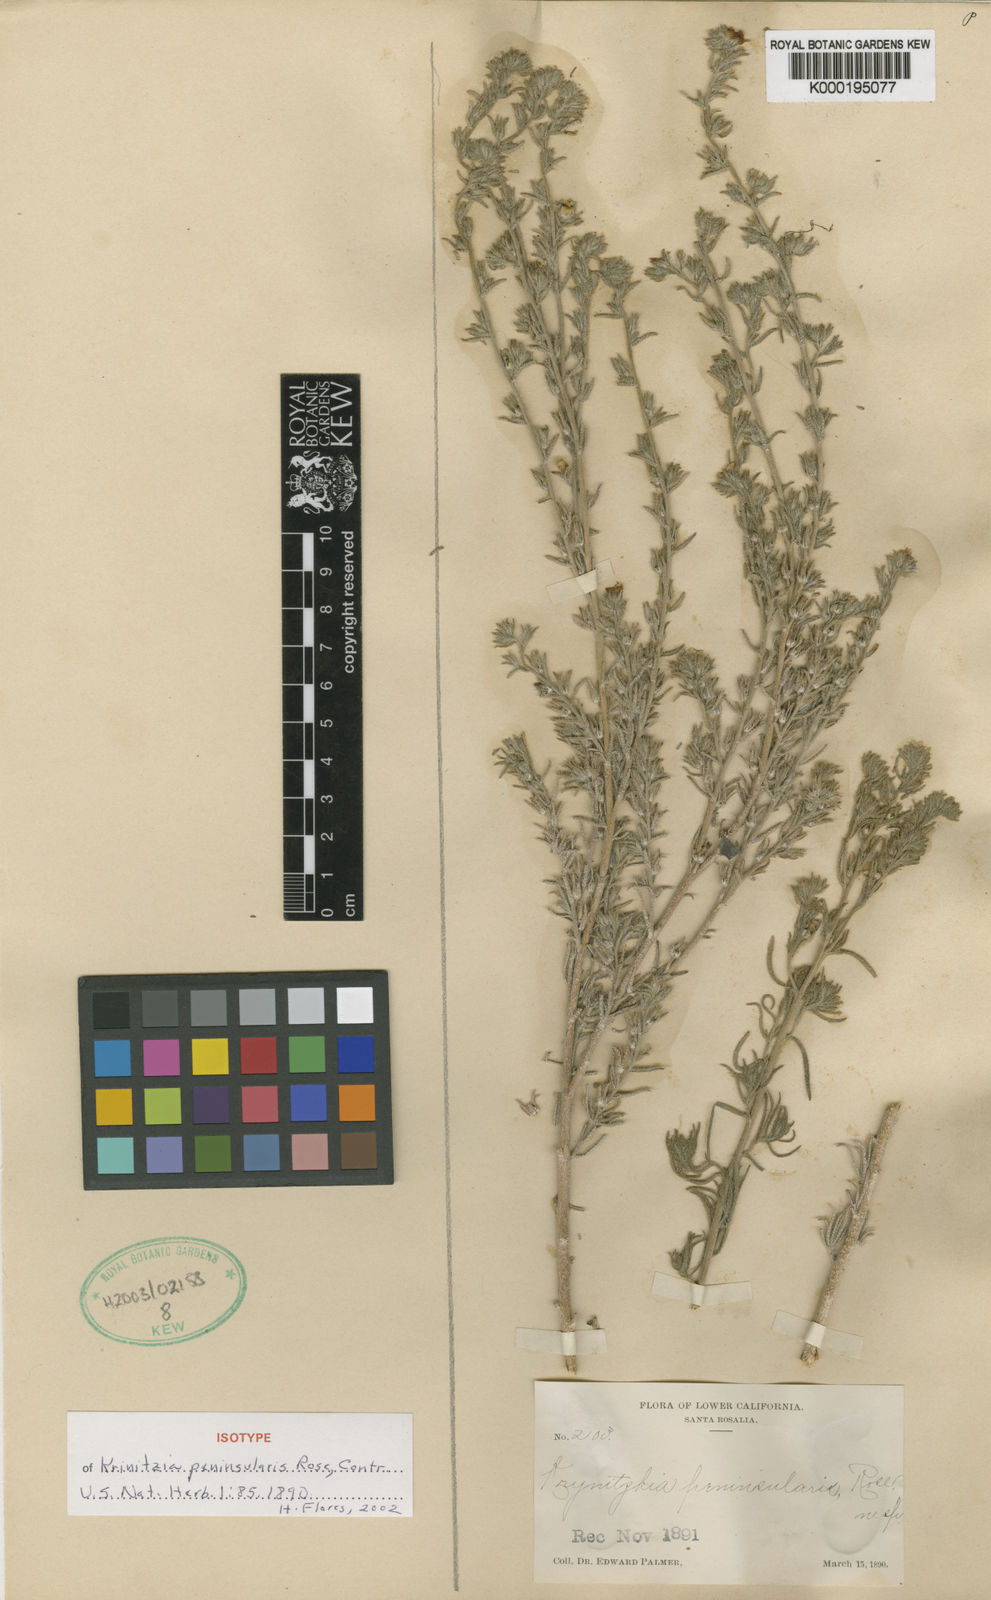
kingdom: Plantae
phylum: Tracheophyta
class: Magnoliopsida
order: Boraginales
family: Boraginaceae
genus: Antiphytum
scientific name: Antiphytum peninsulare
